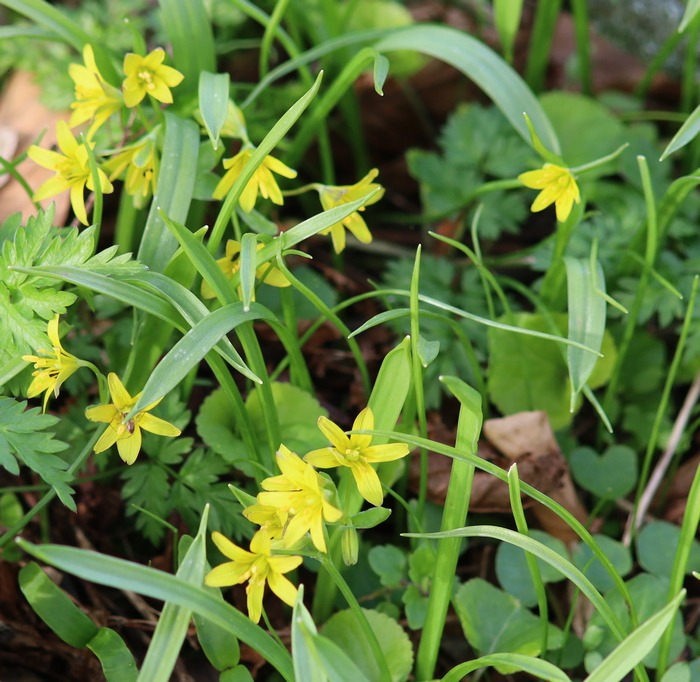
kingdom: Plantae
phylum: Tracheophyta
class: Liliopsida
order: Liliales
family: Liliaceae
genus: Gagea
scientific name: Gagea lutea
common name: Almindelig guldstjerne
